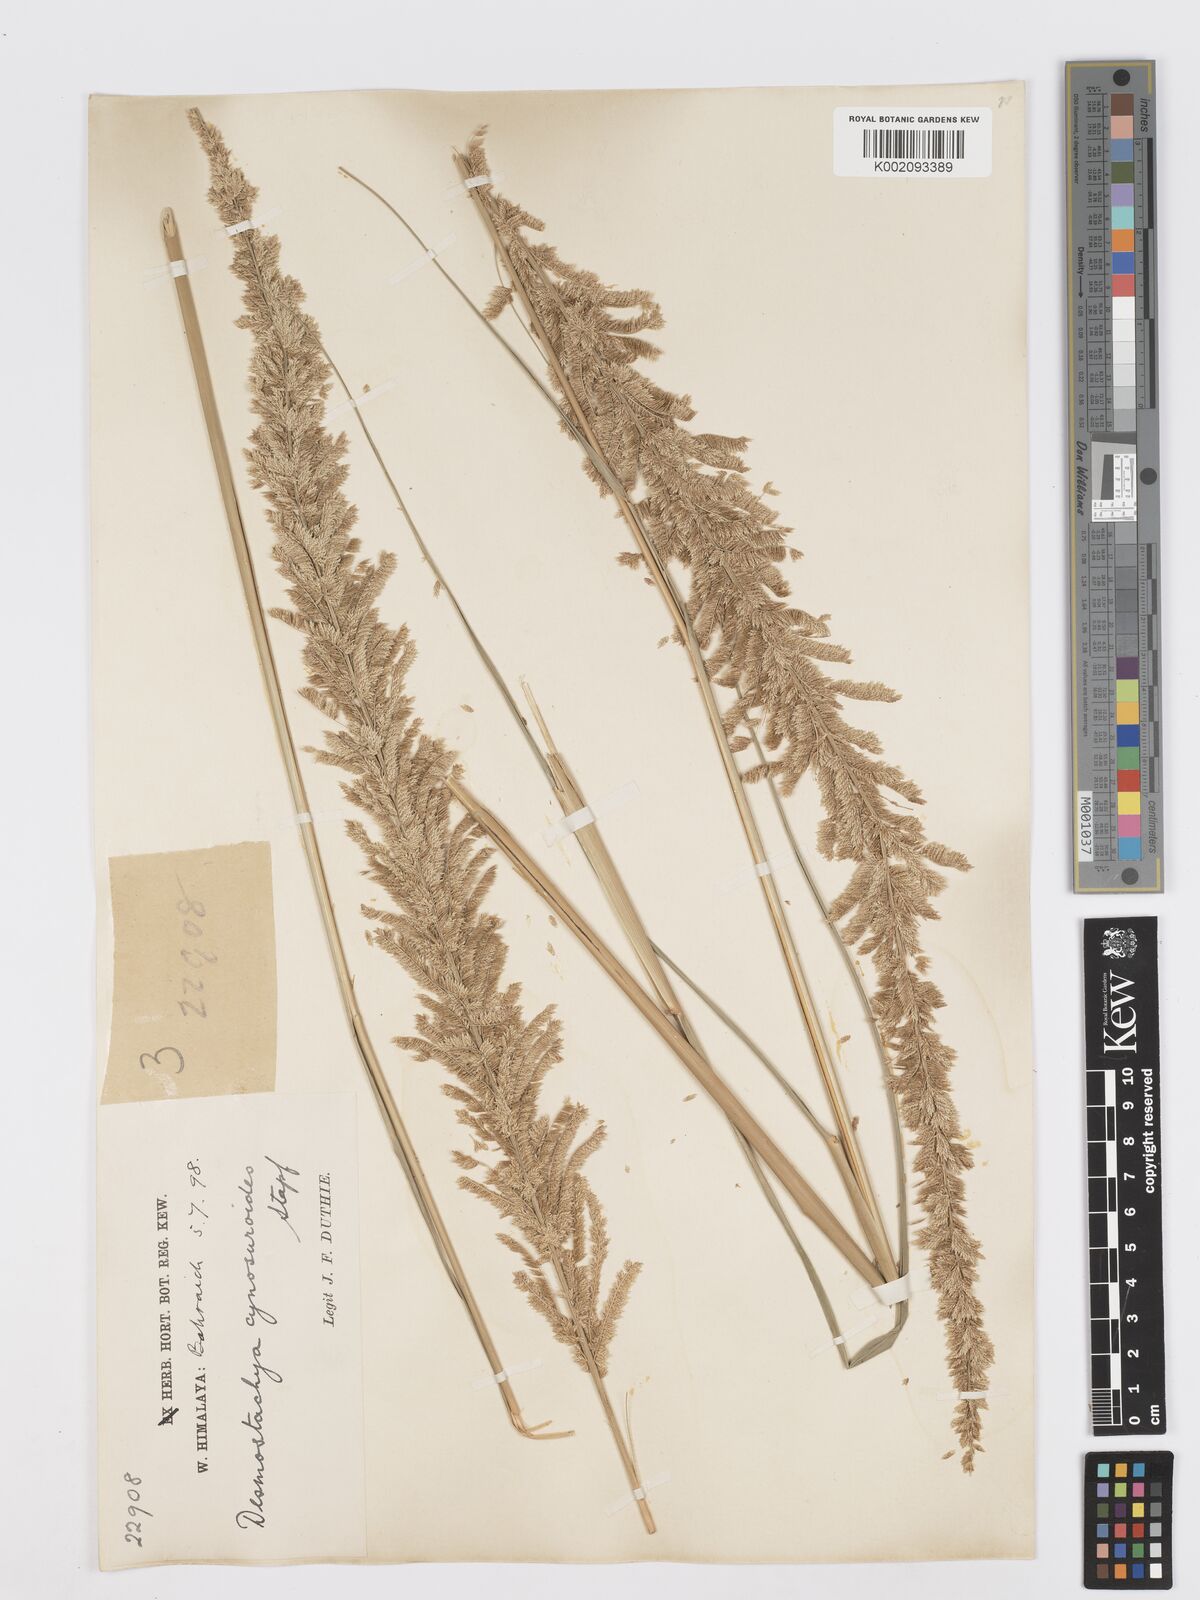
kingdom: Plantae
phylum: Tracheophyta
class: Liliopsida
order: Poales
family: Poaceae
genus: Desmostachya
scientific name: Desmostachya bipinnata
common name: Crowfoot grass
